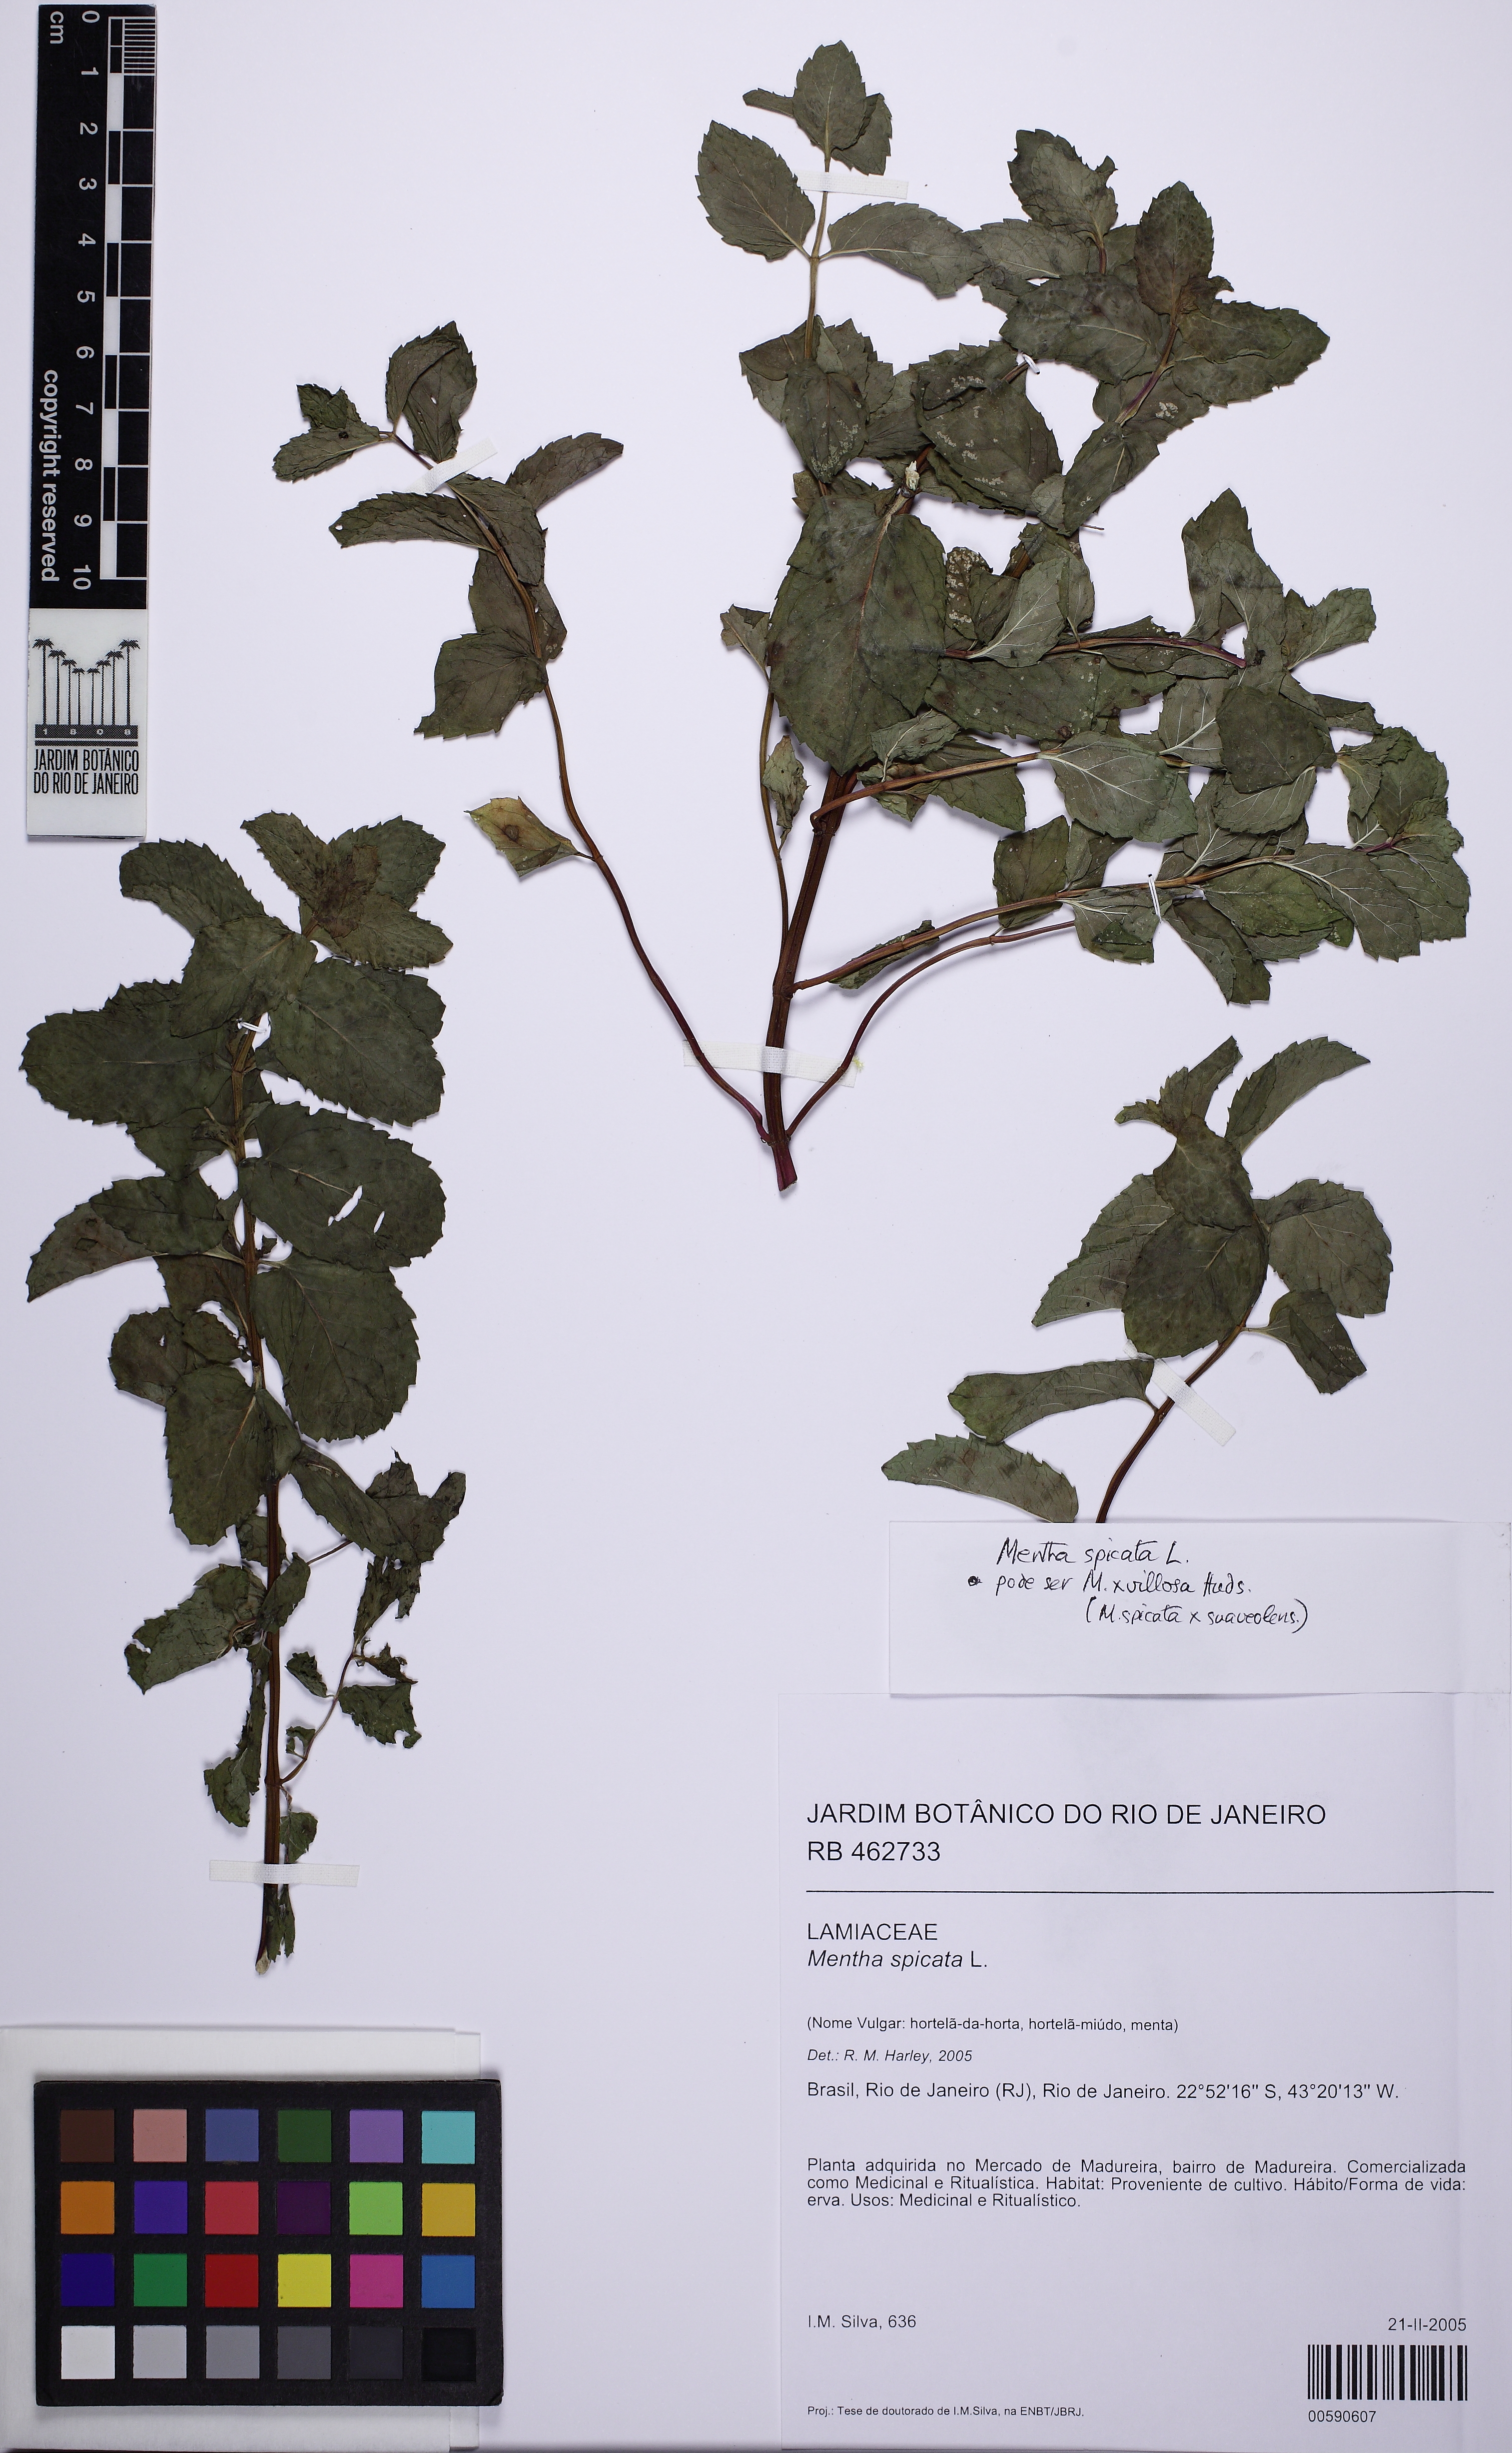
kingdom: Plantae
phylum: Tracheophyta
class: Magnoliopsida
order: Lamiales
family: Lamiaceae
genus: Mentha
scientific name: Mentha spicata
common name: Spearmint
